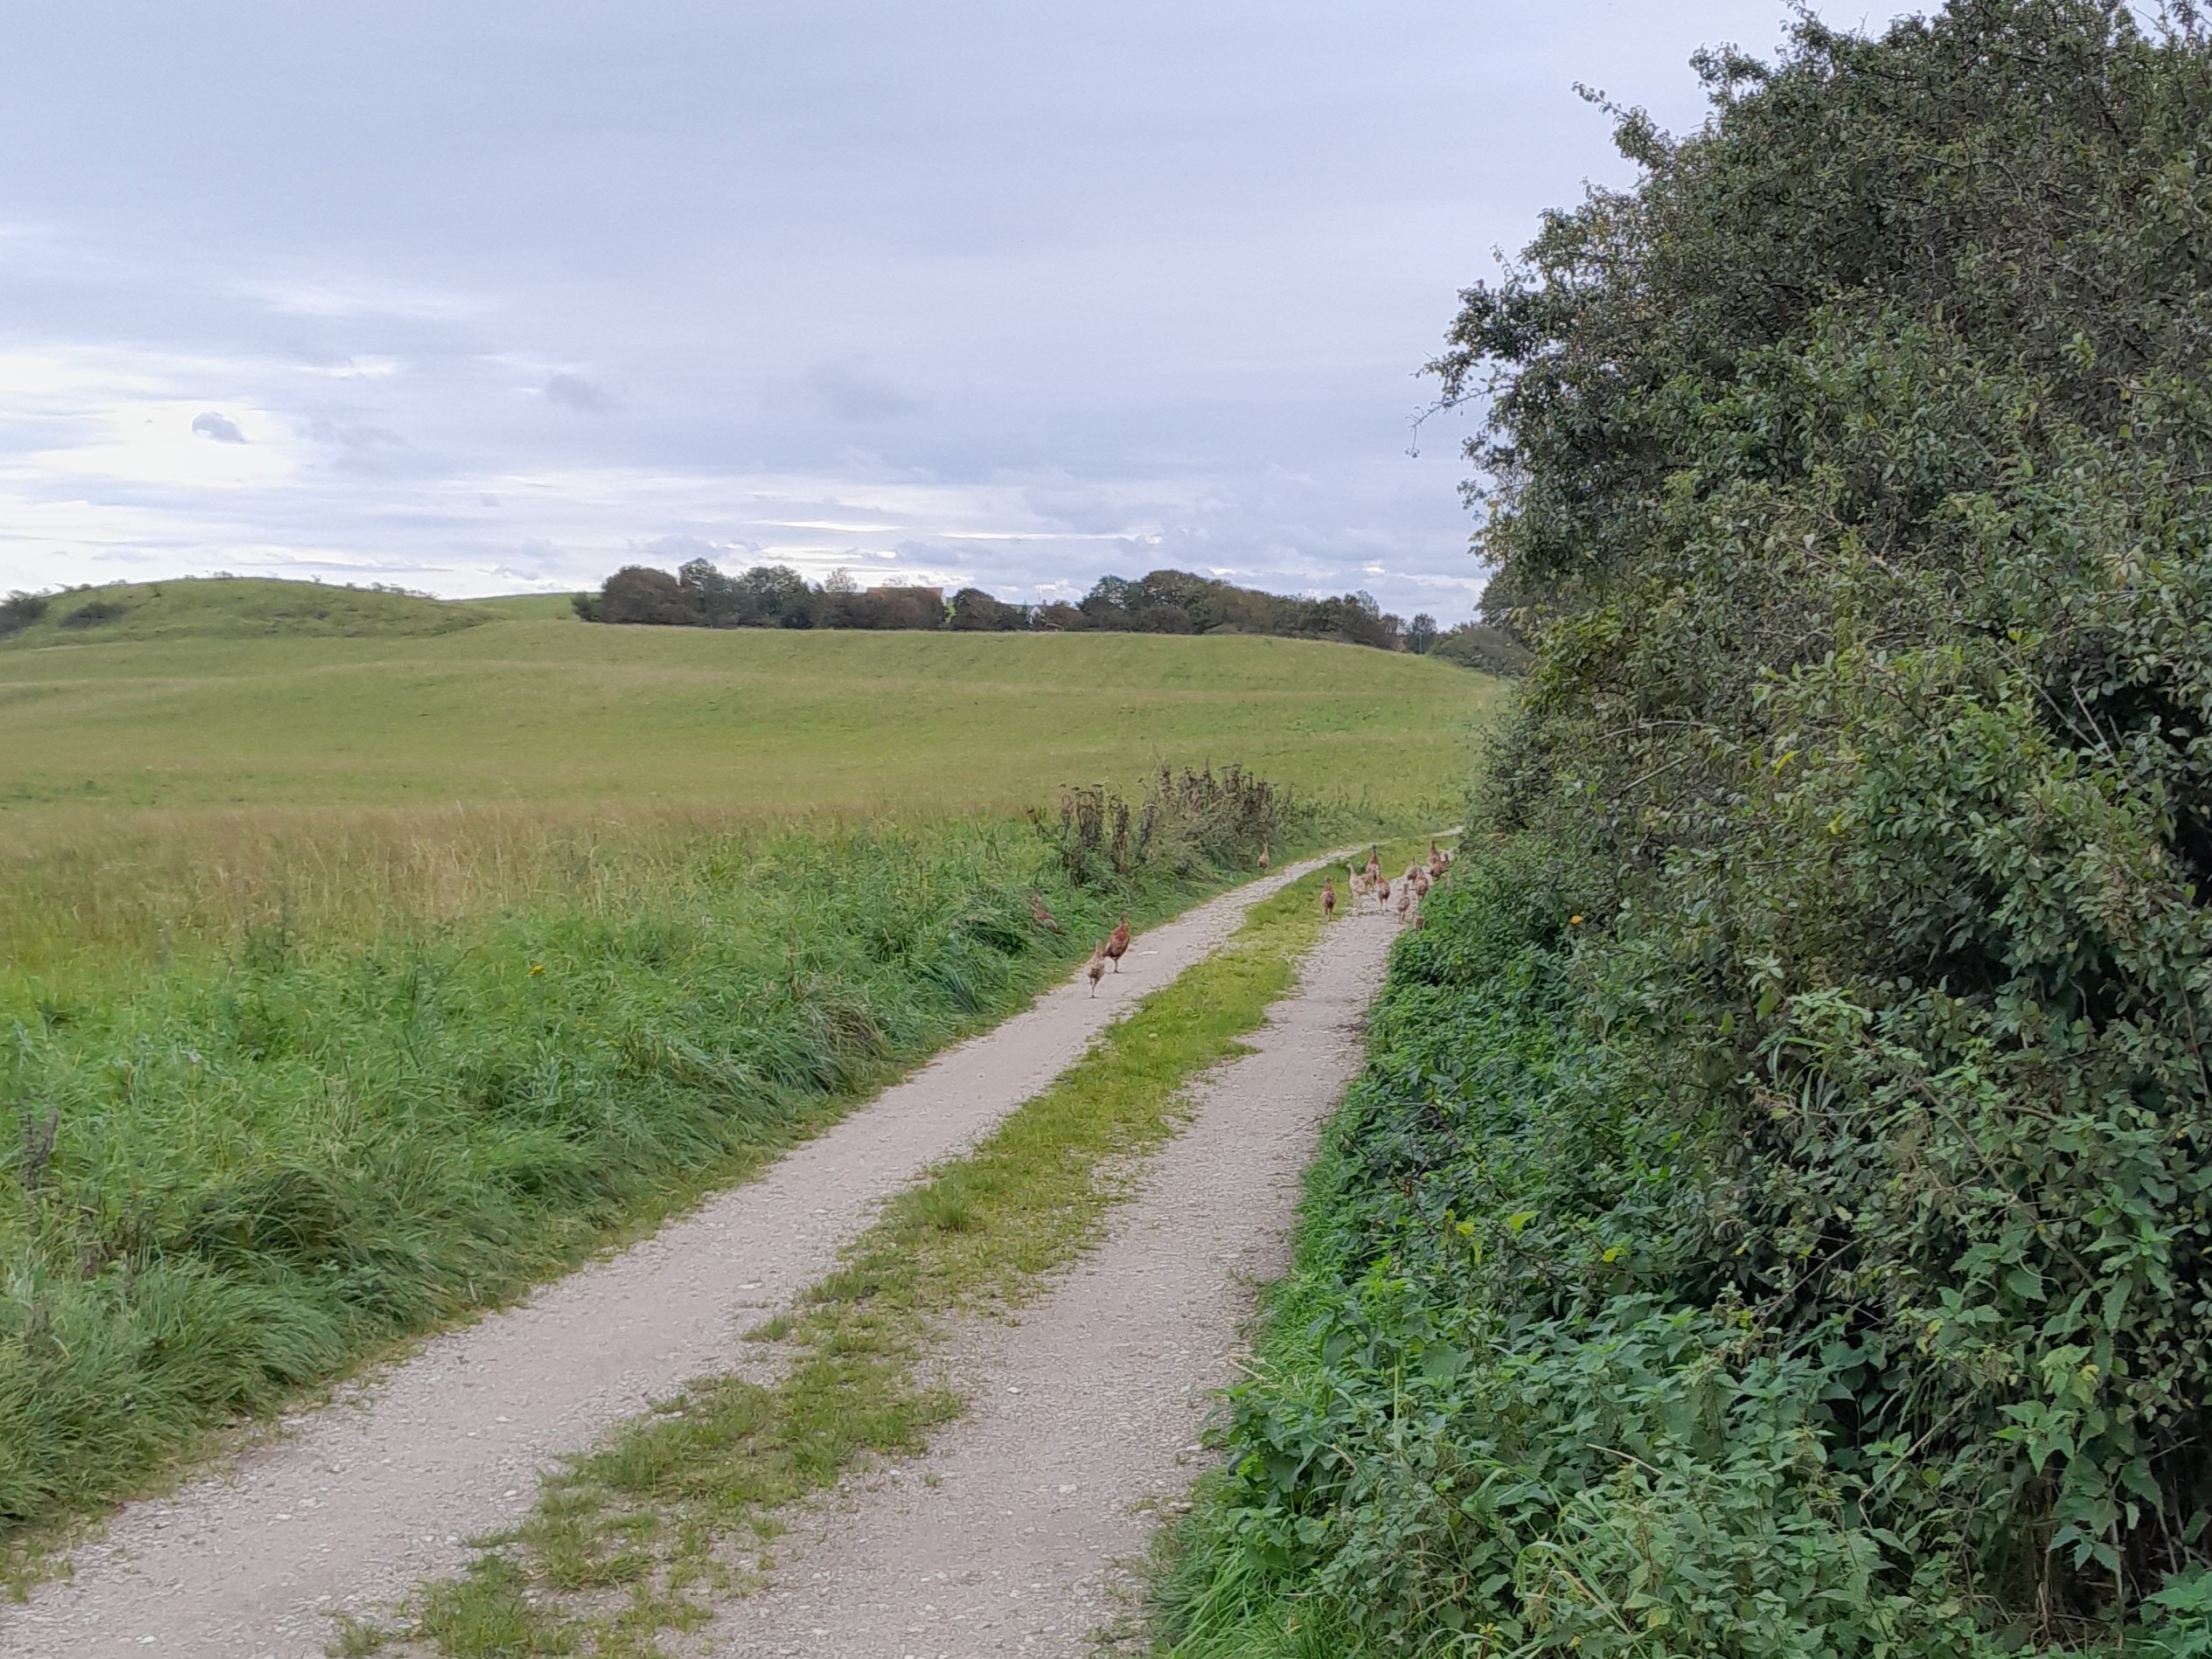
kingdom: Animalia
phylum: Chordata
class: Aves
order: Galliformes
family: Phasianidae
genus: Phasianus
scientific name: Phasianus colchicus
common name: Fasan
